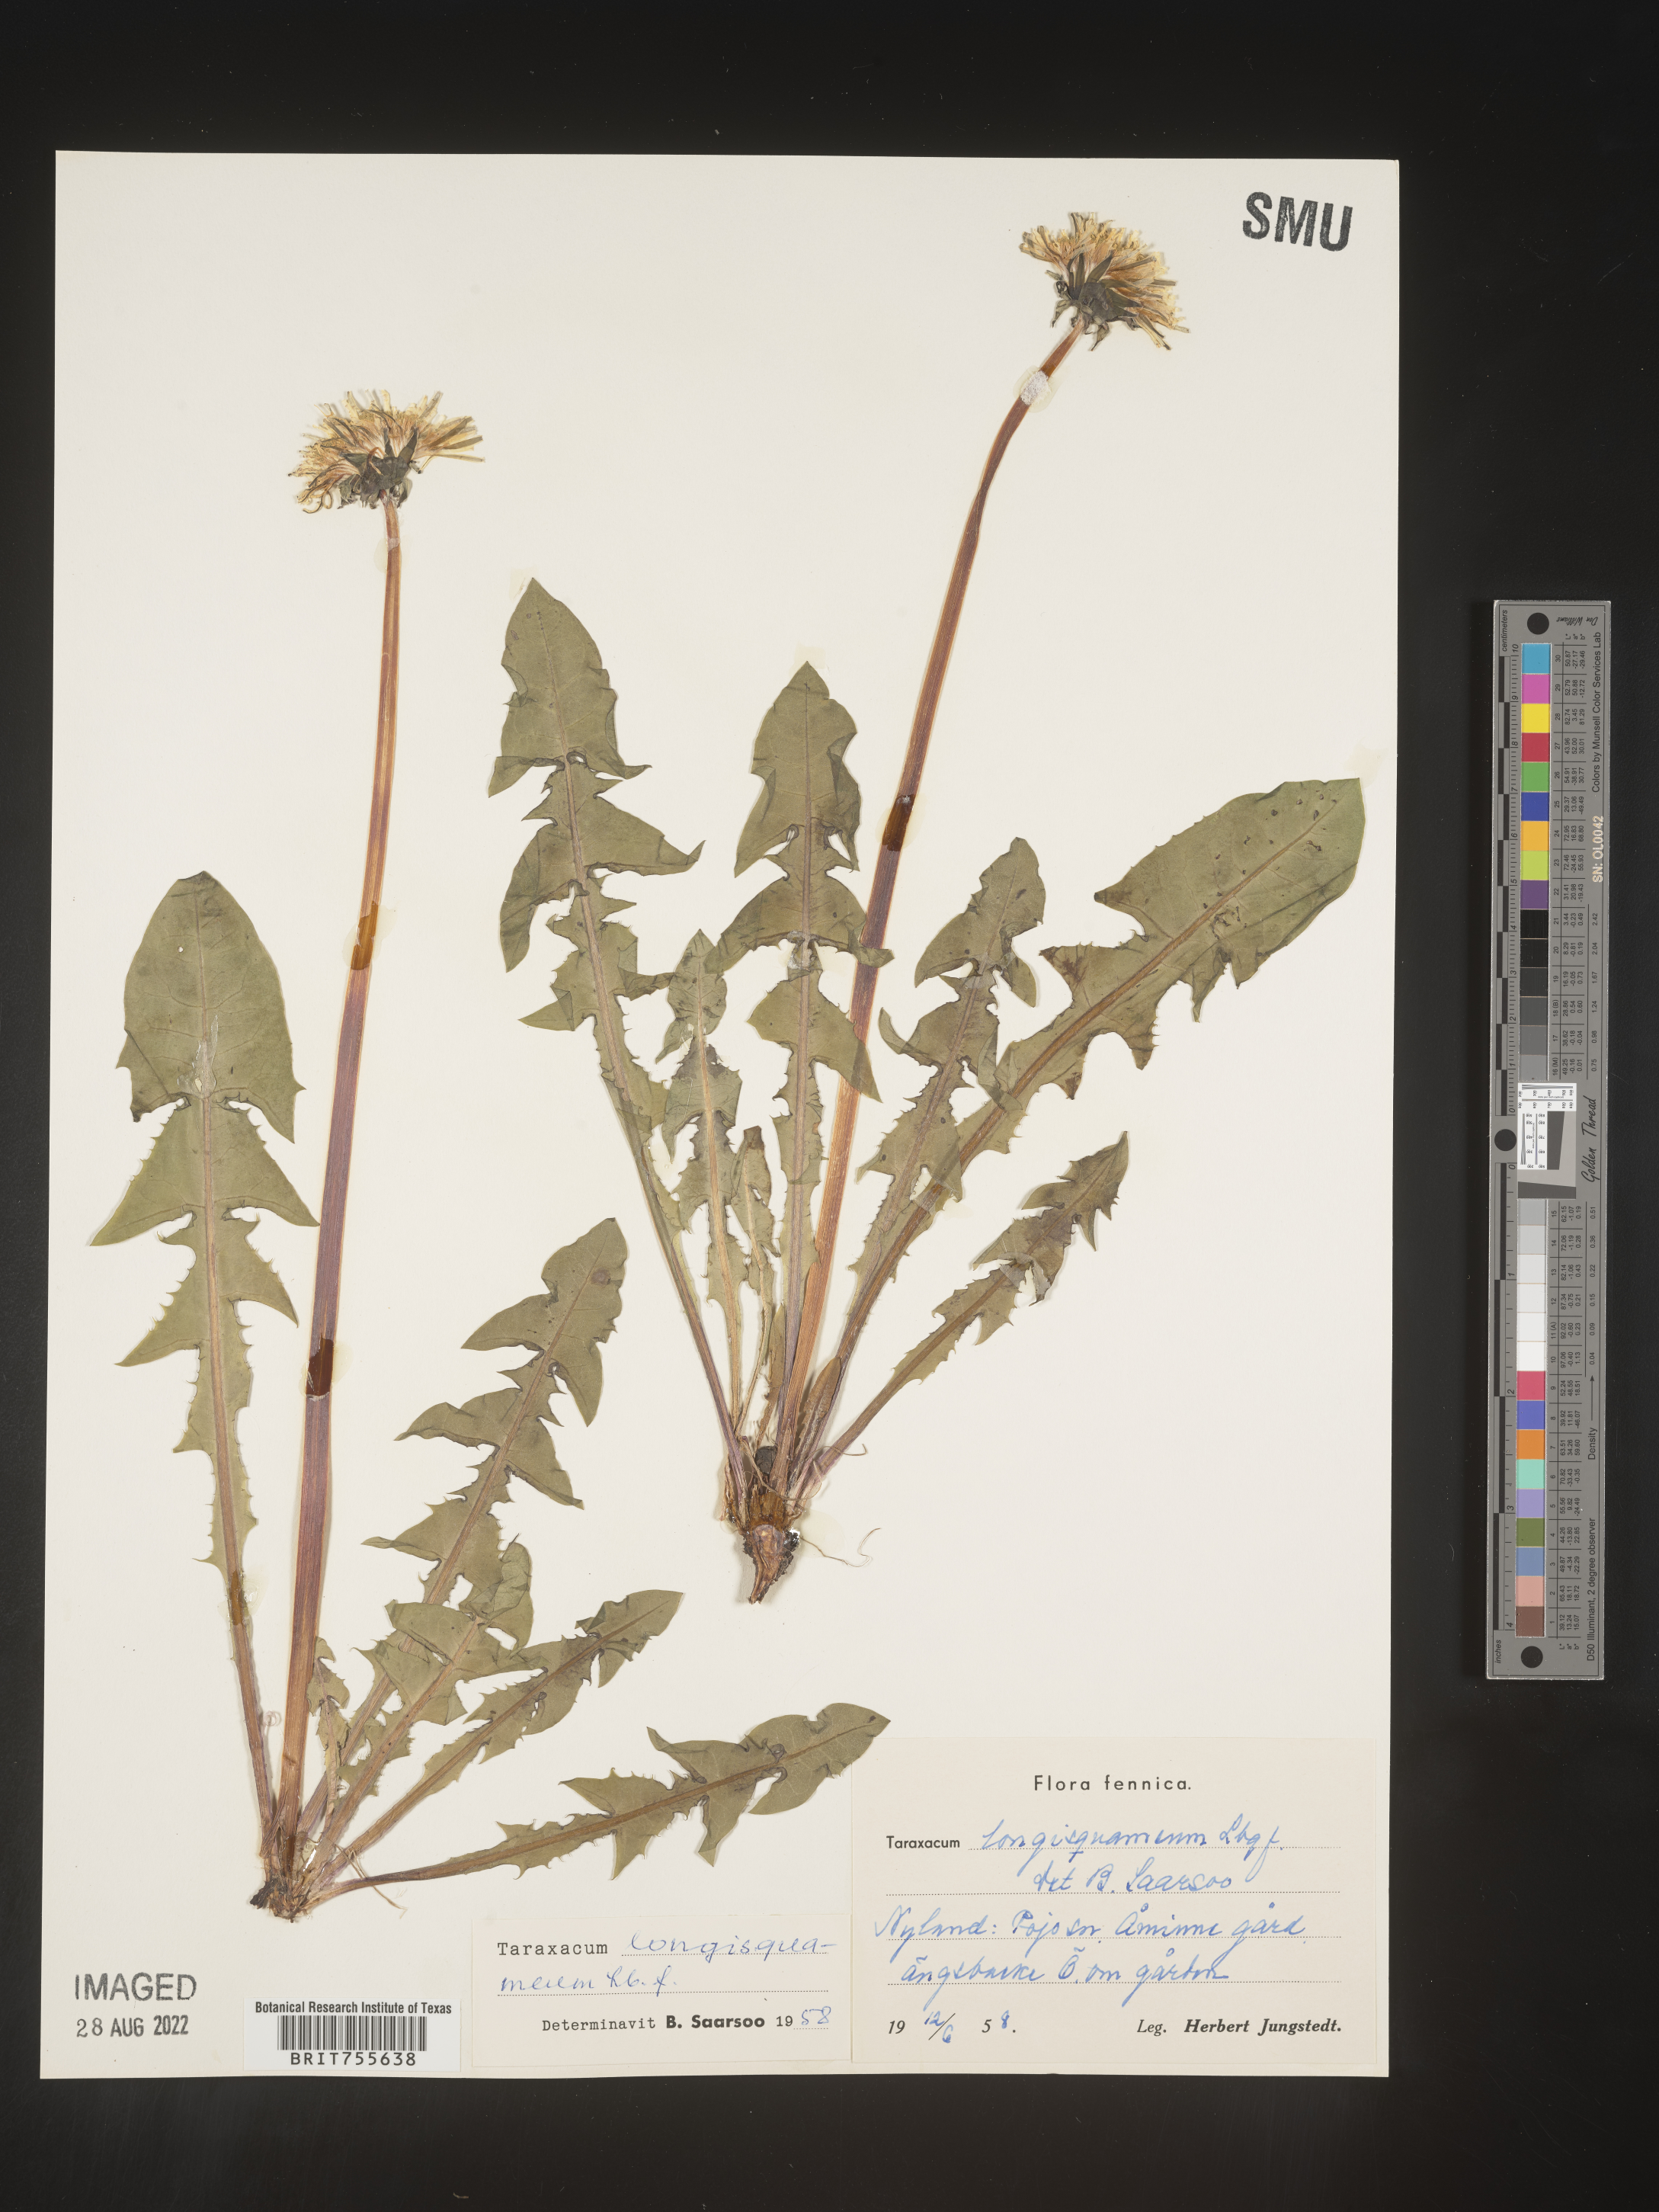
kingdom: Plantae
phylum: Tracheophyta
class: Magnoliopsida
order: Asterales
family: Asteraceae
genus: Taraxacum
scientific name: Taraxacum
